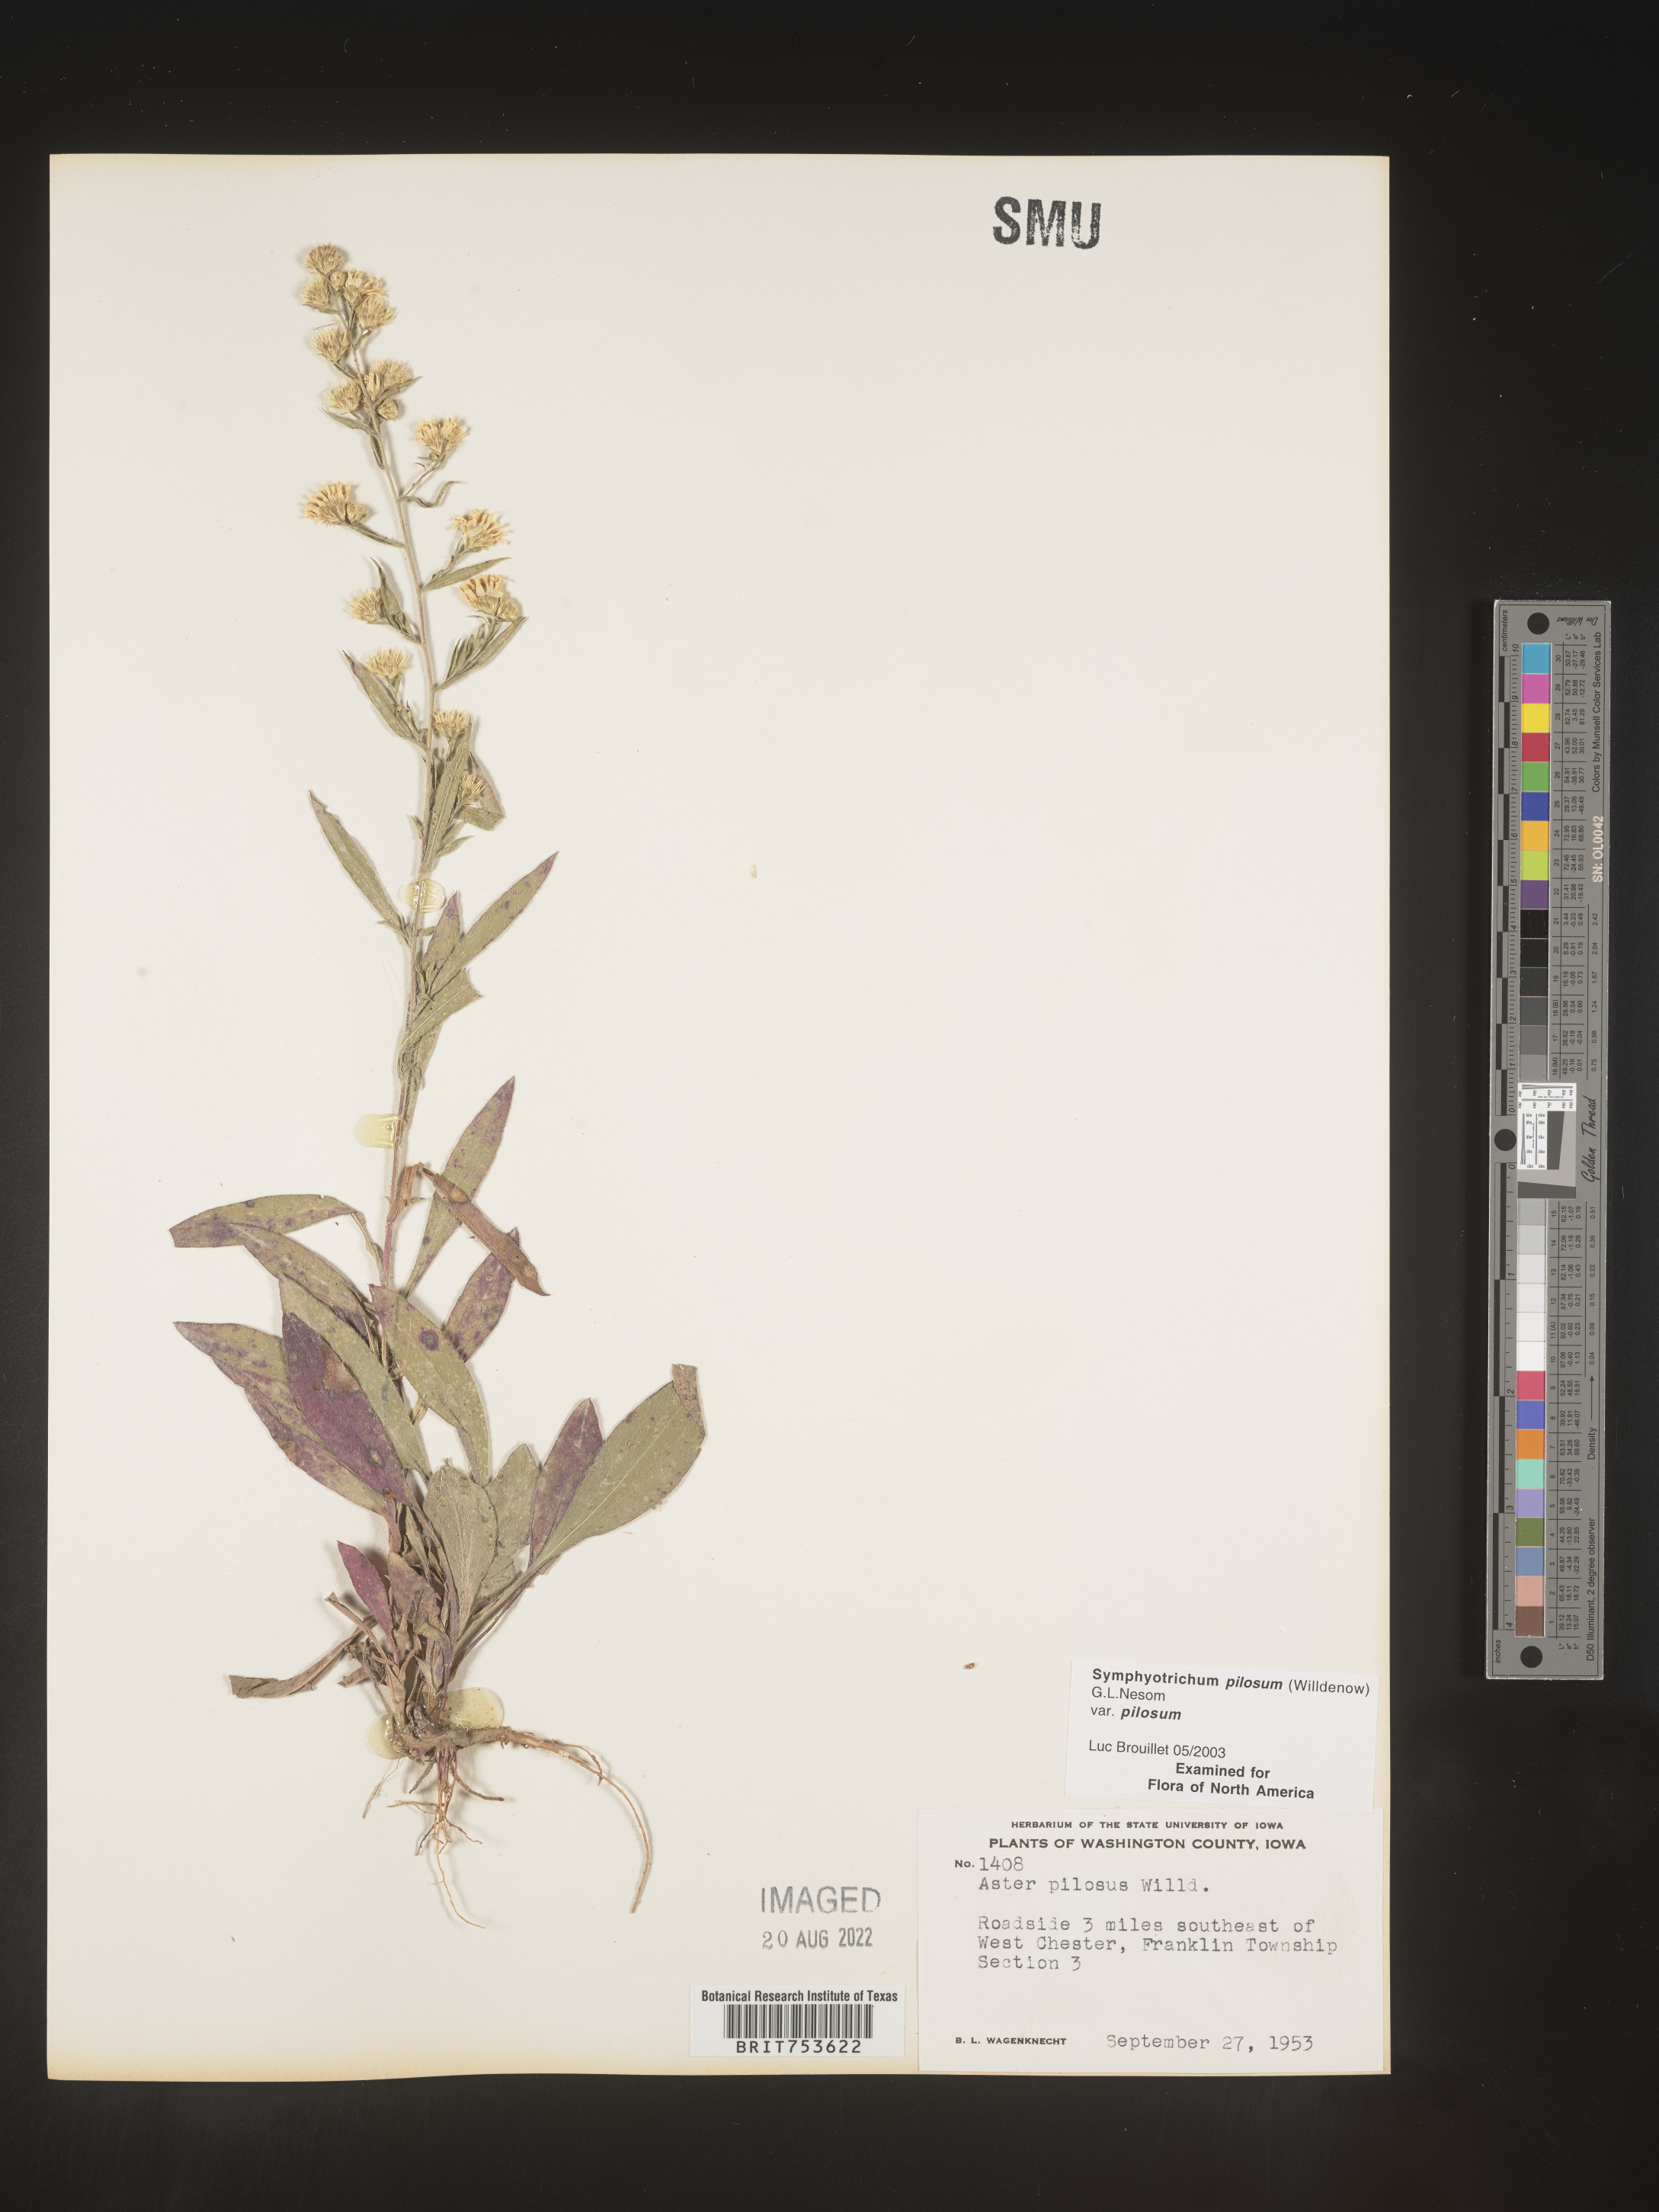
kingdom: Plantae
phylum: Tracheophyta
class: Magnoliopsida
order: Asterales
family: Asteraceae
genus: Symphyotrichum
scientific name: Symphyotrichum pilosum
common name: Awl aster
